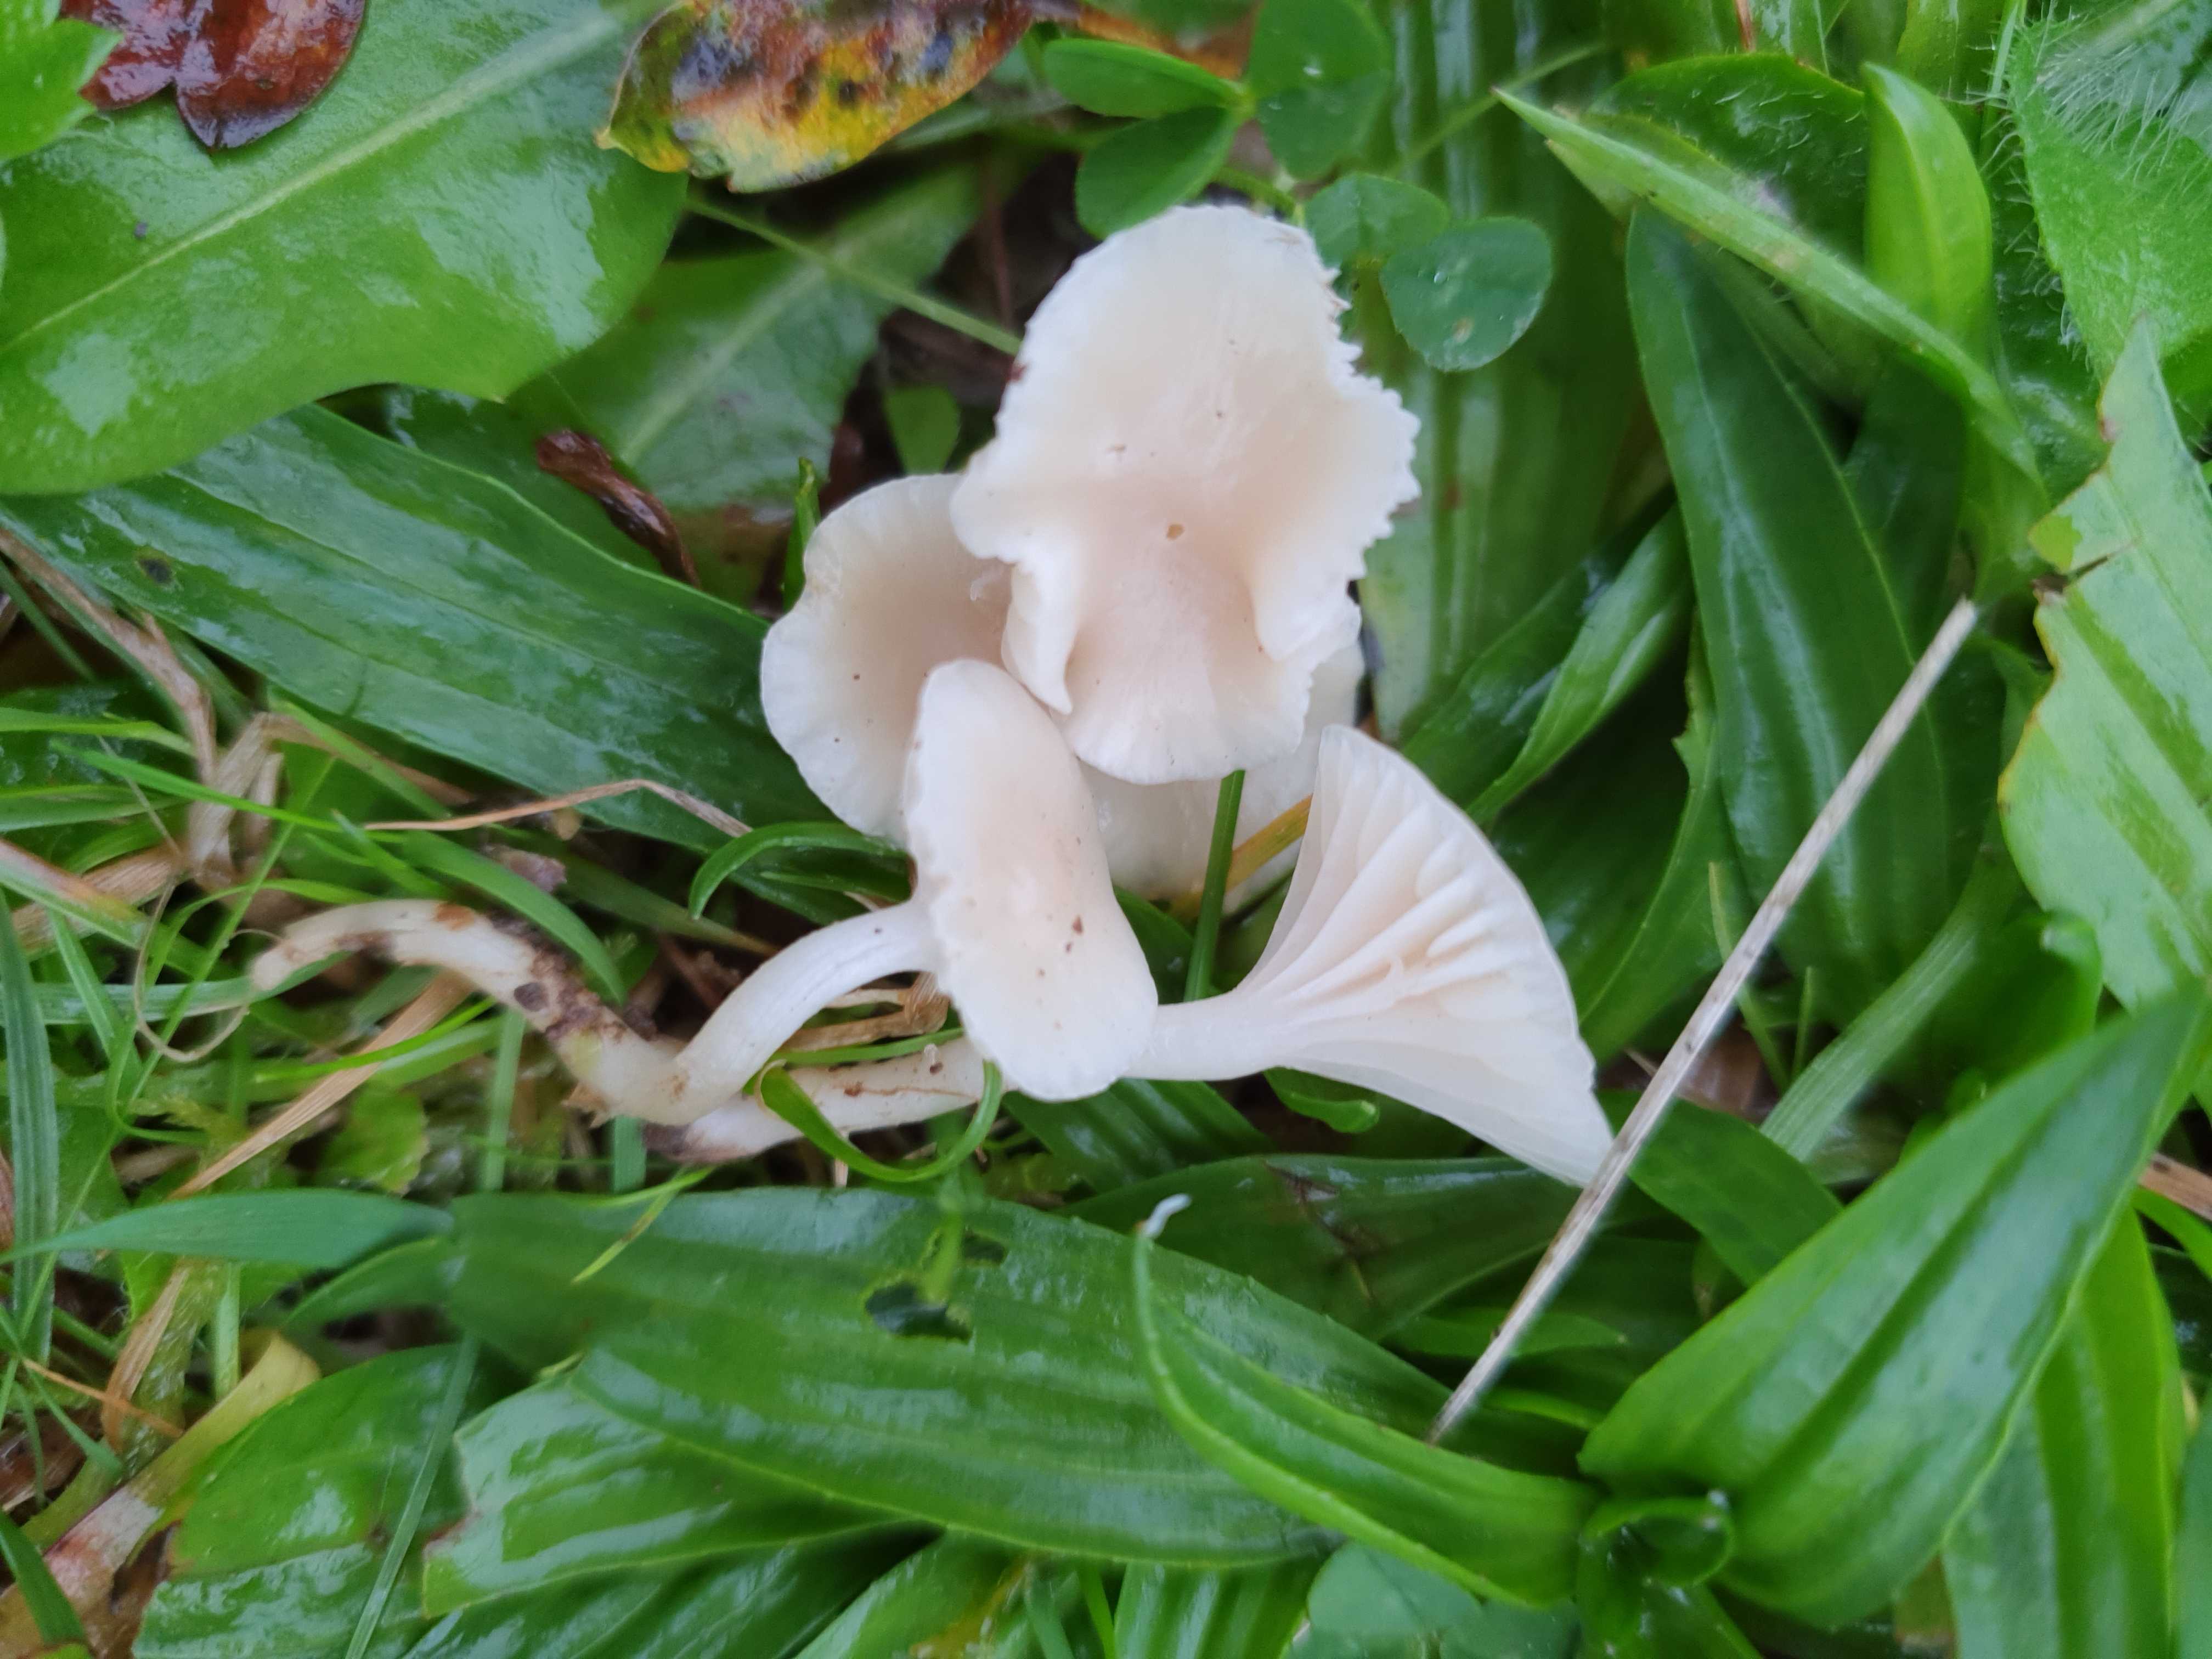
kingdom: Fungi
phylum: Basidiomycota
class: Agaricomycetes
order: Agaricales
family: Hygrophoraceae
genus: Cuphophyllus
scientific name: Cuphophyllus russocoriaceus
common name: ruslæder-vokshat
